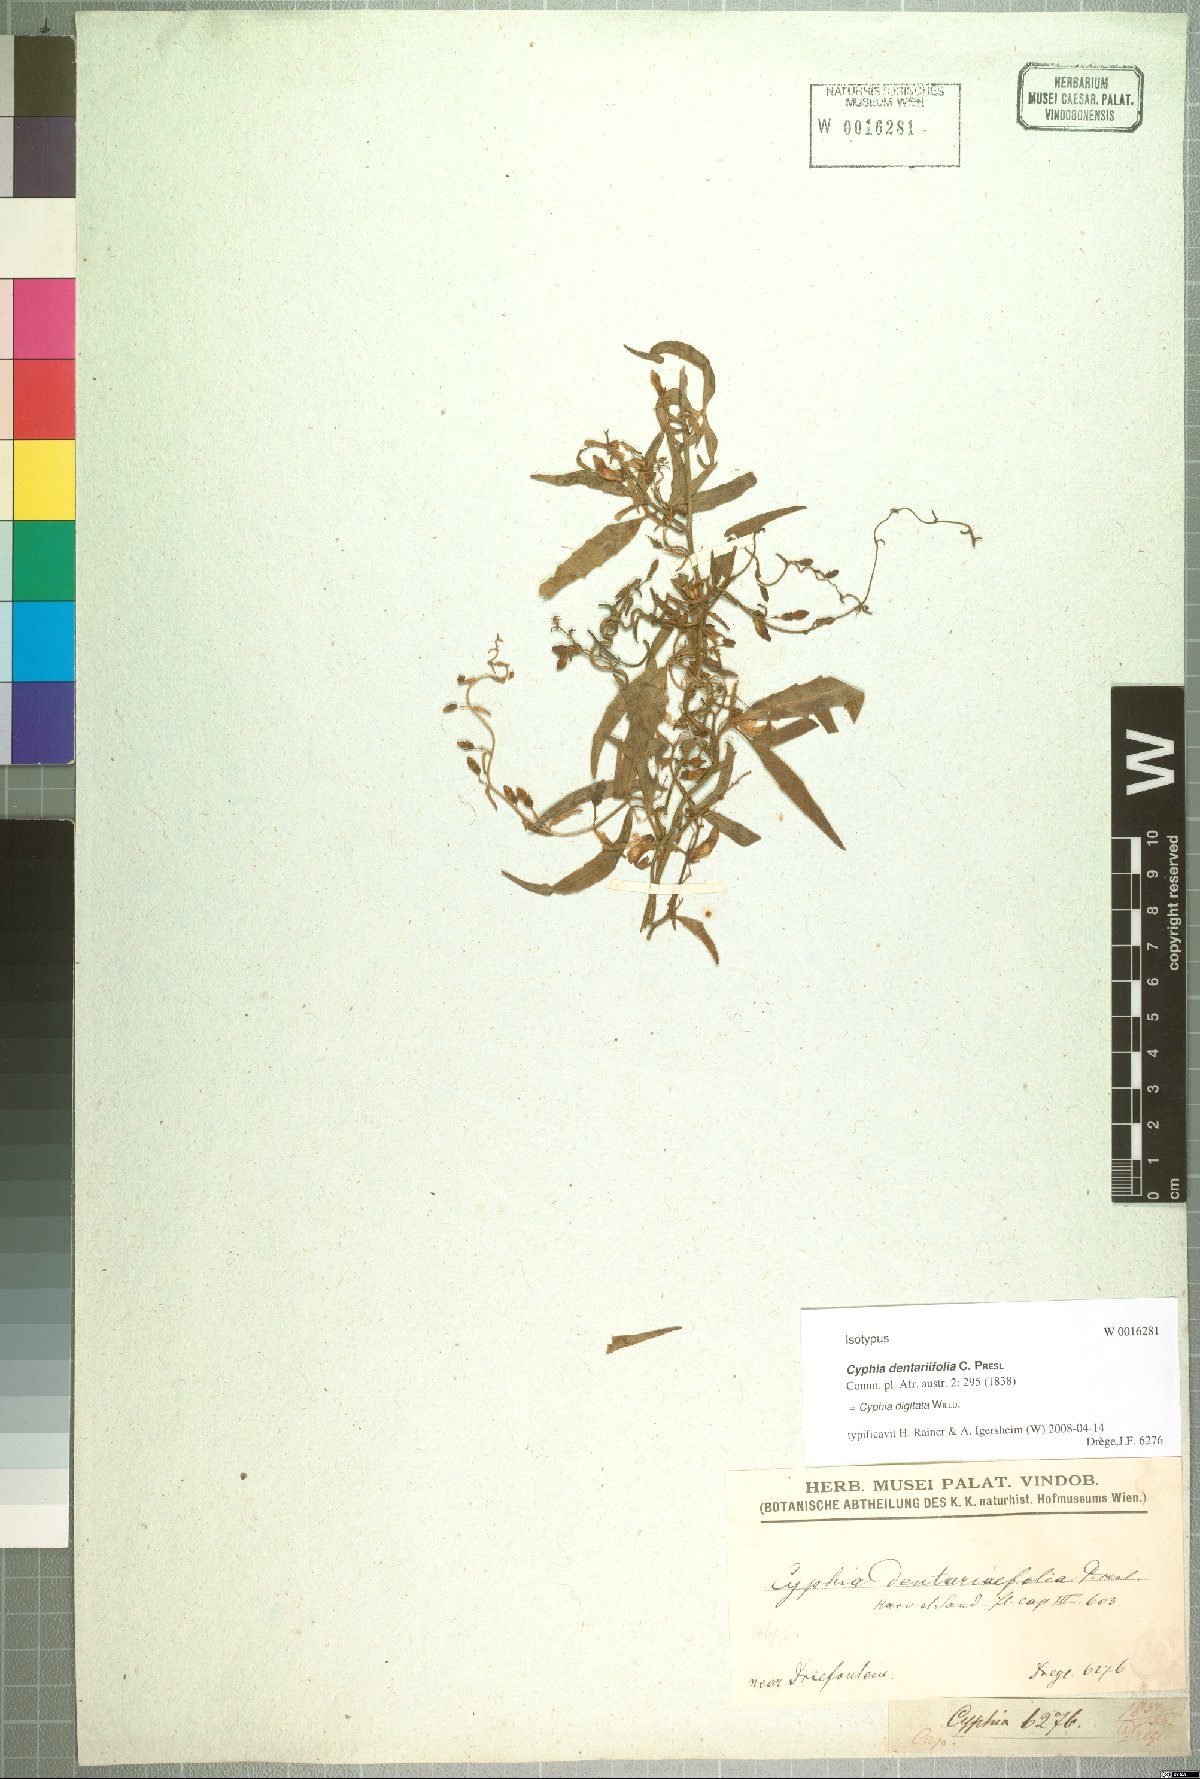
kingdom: Plantae
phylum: Tracheophyta
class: Magnoliopsida
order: Asterales
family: Campanulaceae
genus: Cyphia
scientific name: Cyphia digitata
